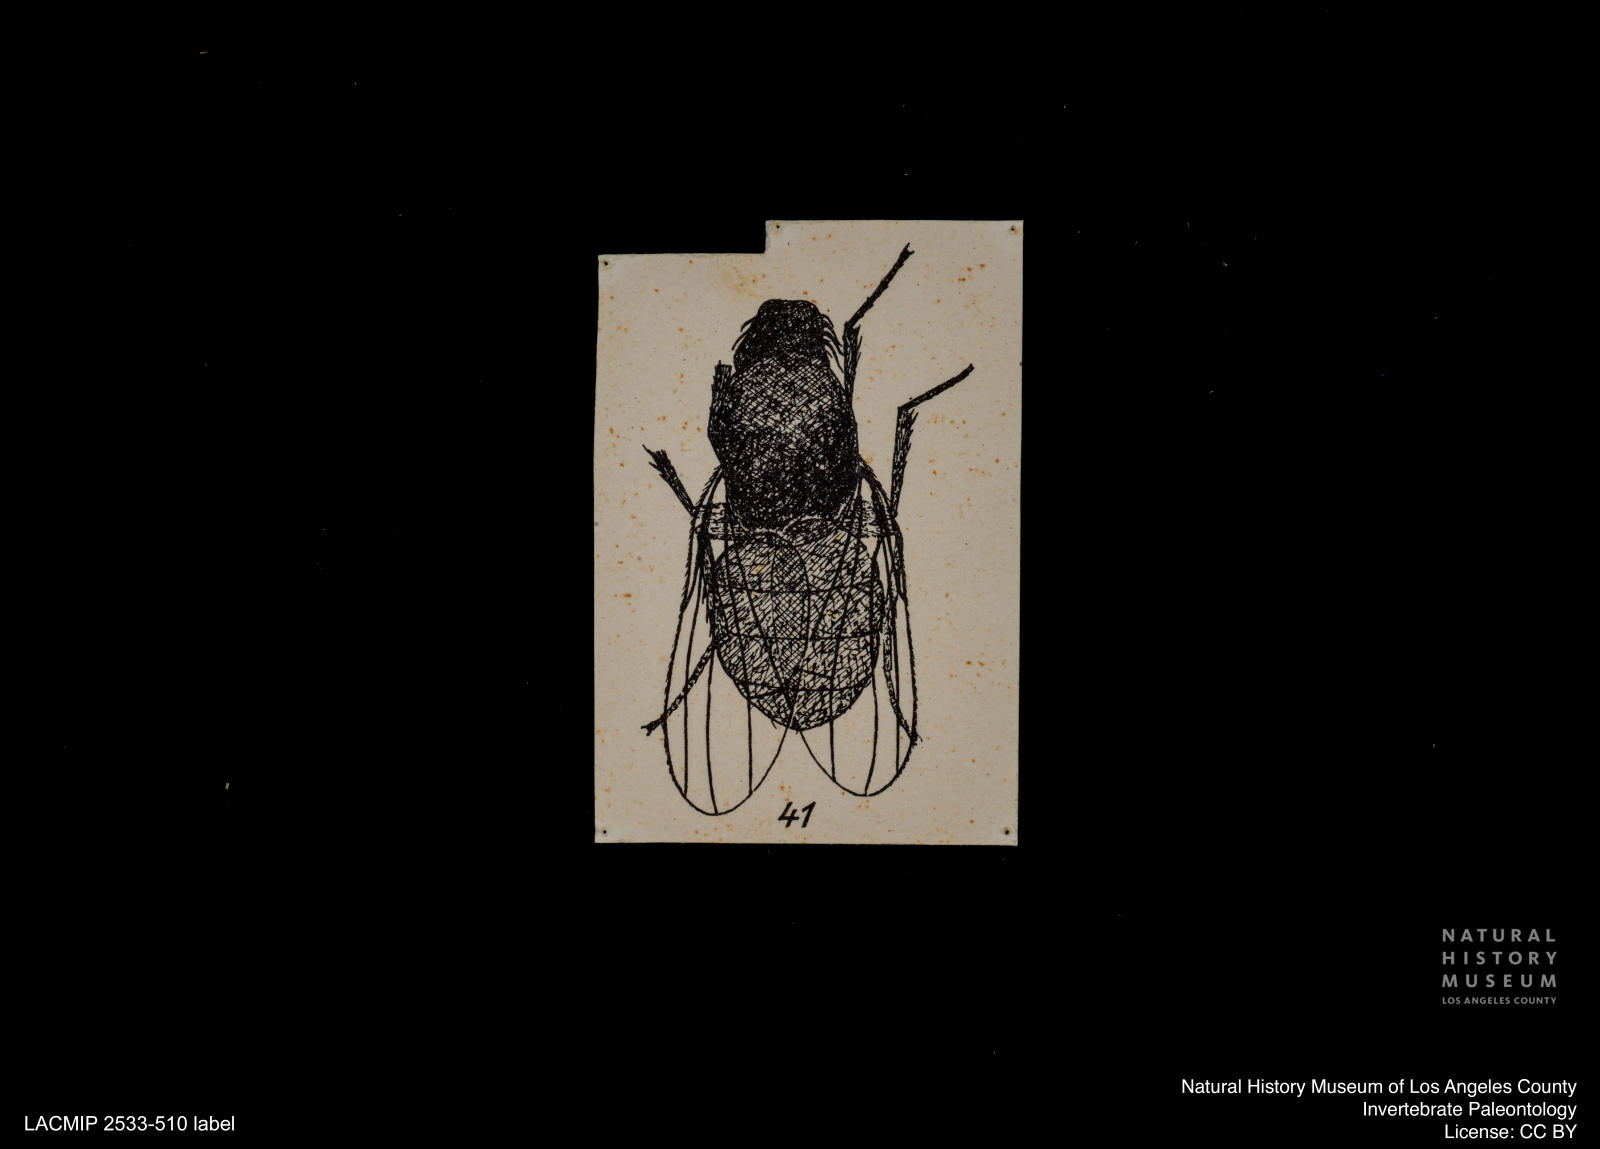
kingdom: Animalia
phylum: Arthropoda
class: Insecta
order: Diptera
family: Heleomyzidae
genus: Heleomyza
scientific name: Heleomyza bauckhorni
